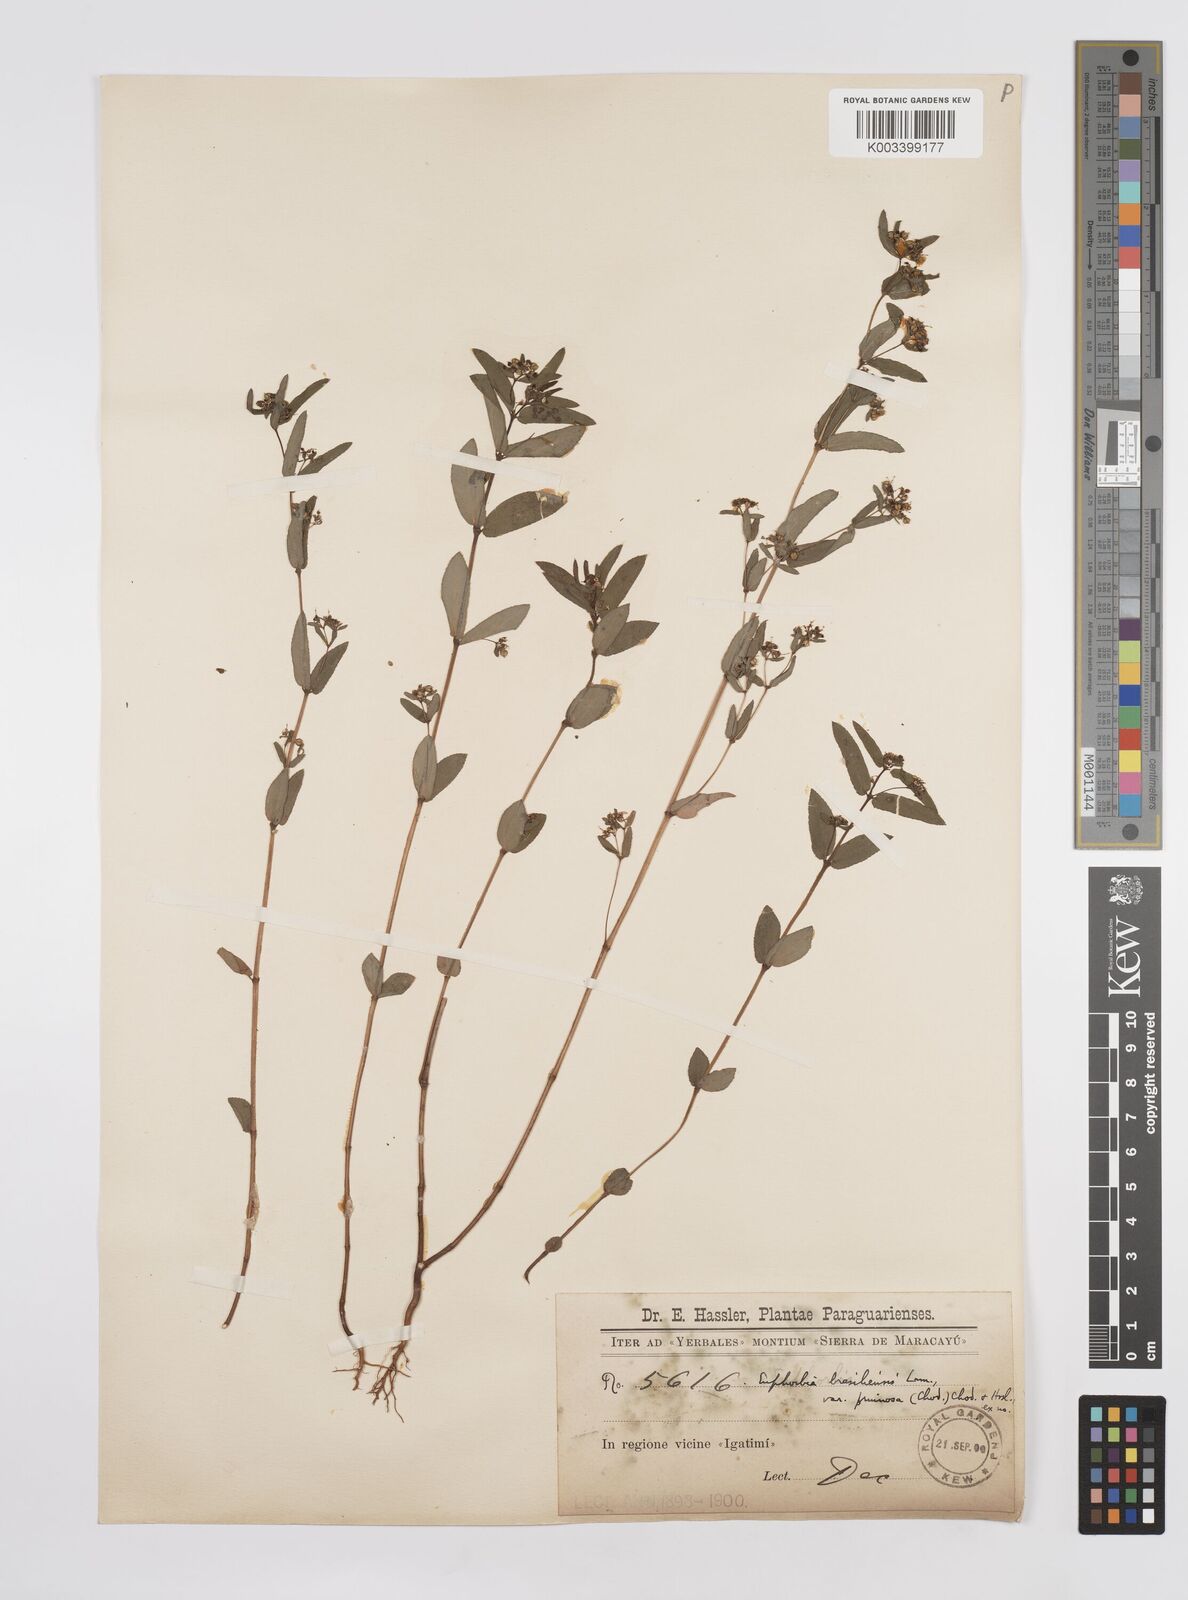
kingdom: Plantae
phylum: Tracheophyta
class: Magnoliopsida
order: Malpighiales
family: Euphorbiaceae
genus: Euphorbia
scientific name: Euphorbia hyssopifolia
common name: Hyssopleaf sandmat
